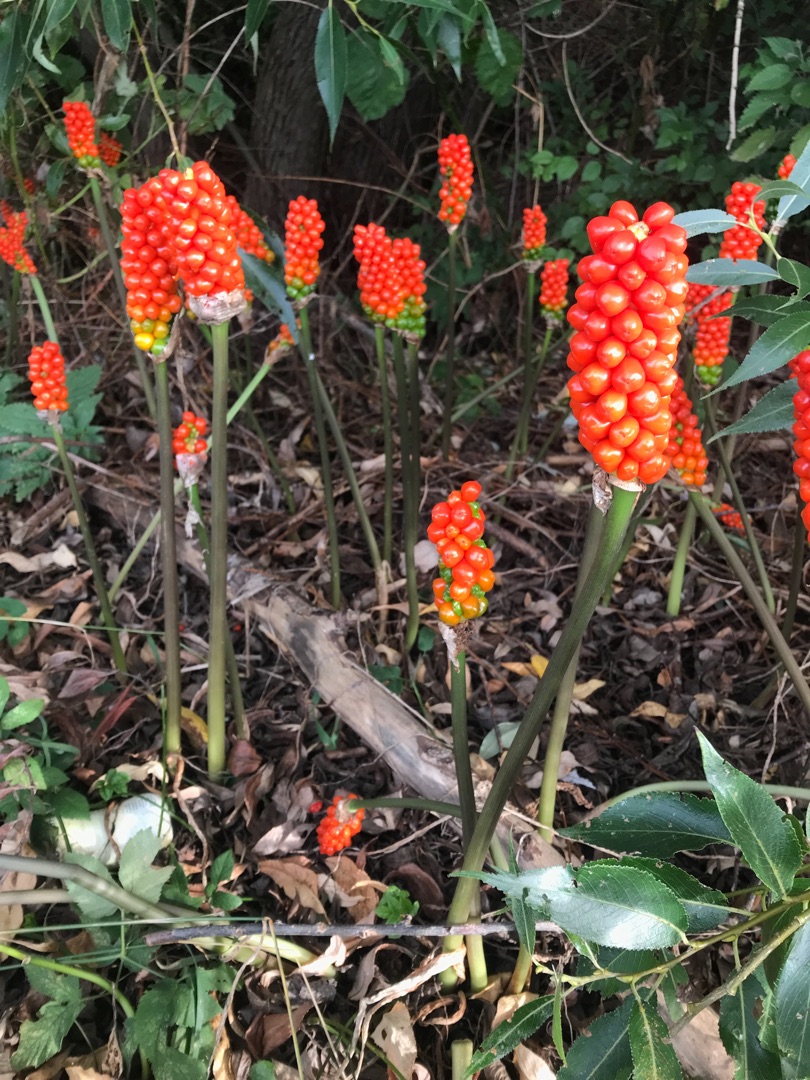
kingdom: Plantae
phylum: Tracheophyta
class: Liliopsida
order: Alismatales
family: Araceae
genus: Arum
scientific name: Arum
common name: Arumslægten
